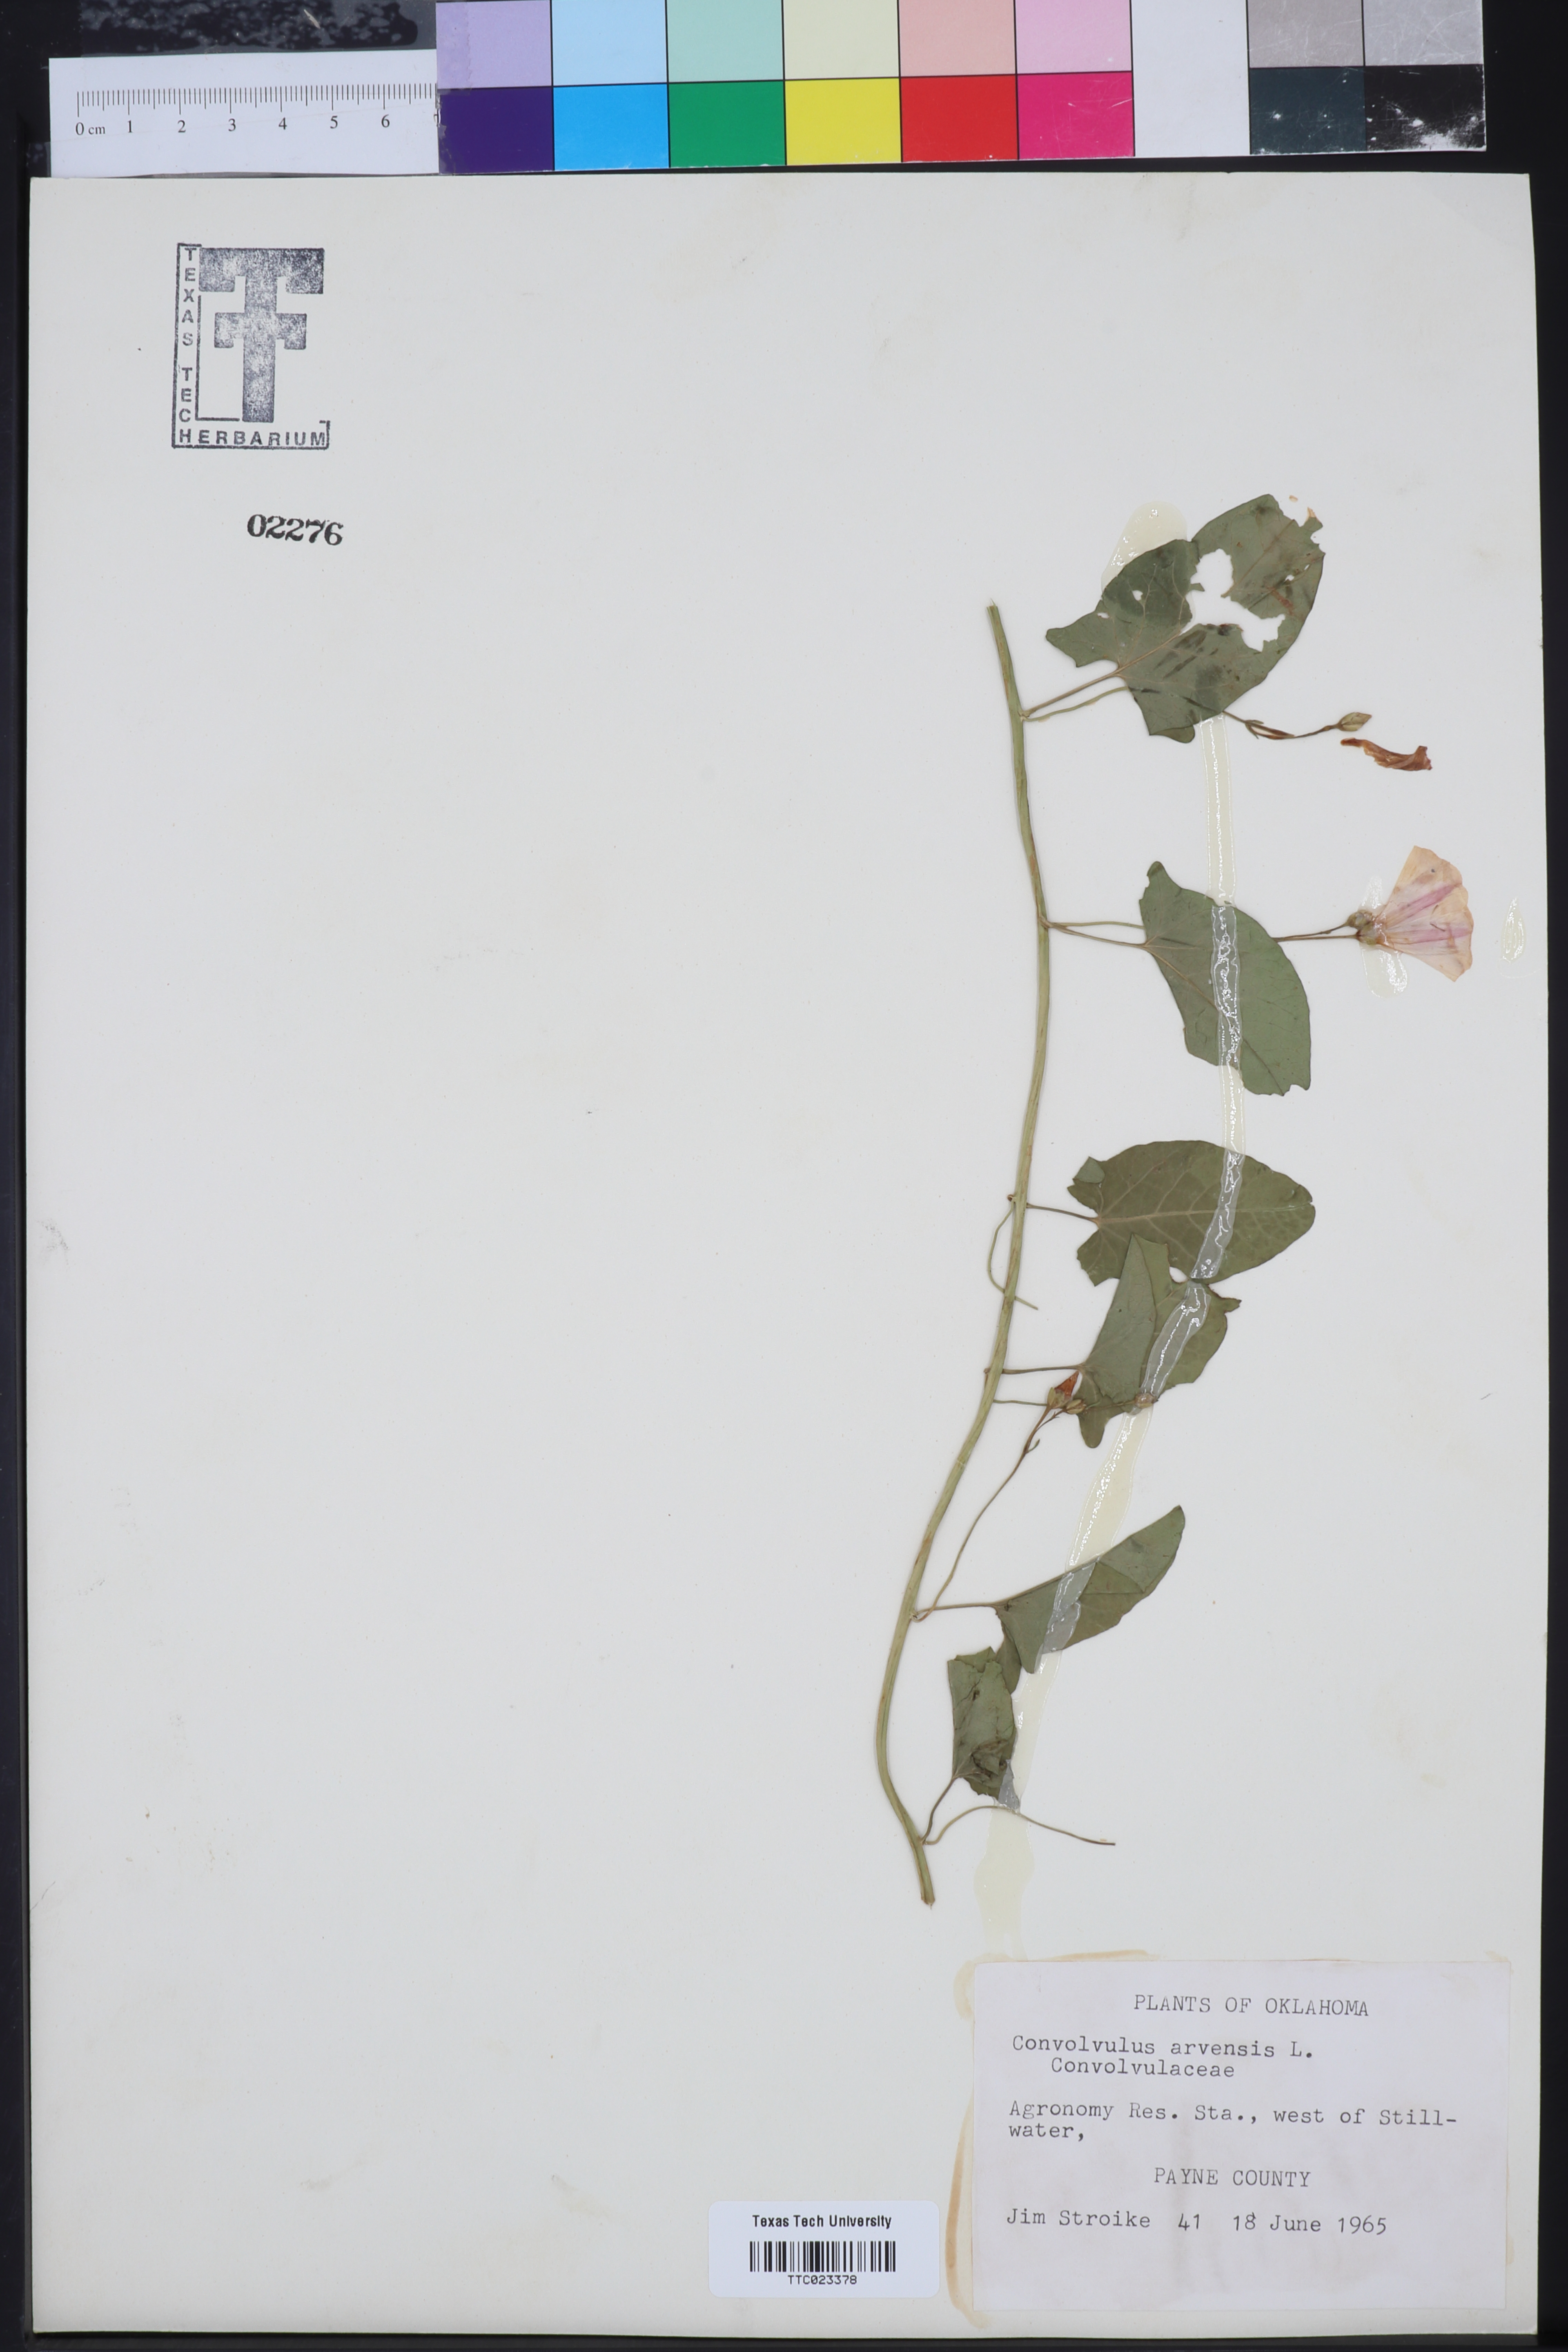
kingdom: Plantae
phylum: Tracheophyta
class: Magnoliopsida
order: Solanales
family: Convolvulaceae
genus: Convolvulus
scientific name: Convolvulus arvensis
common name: Field bindweed
